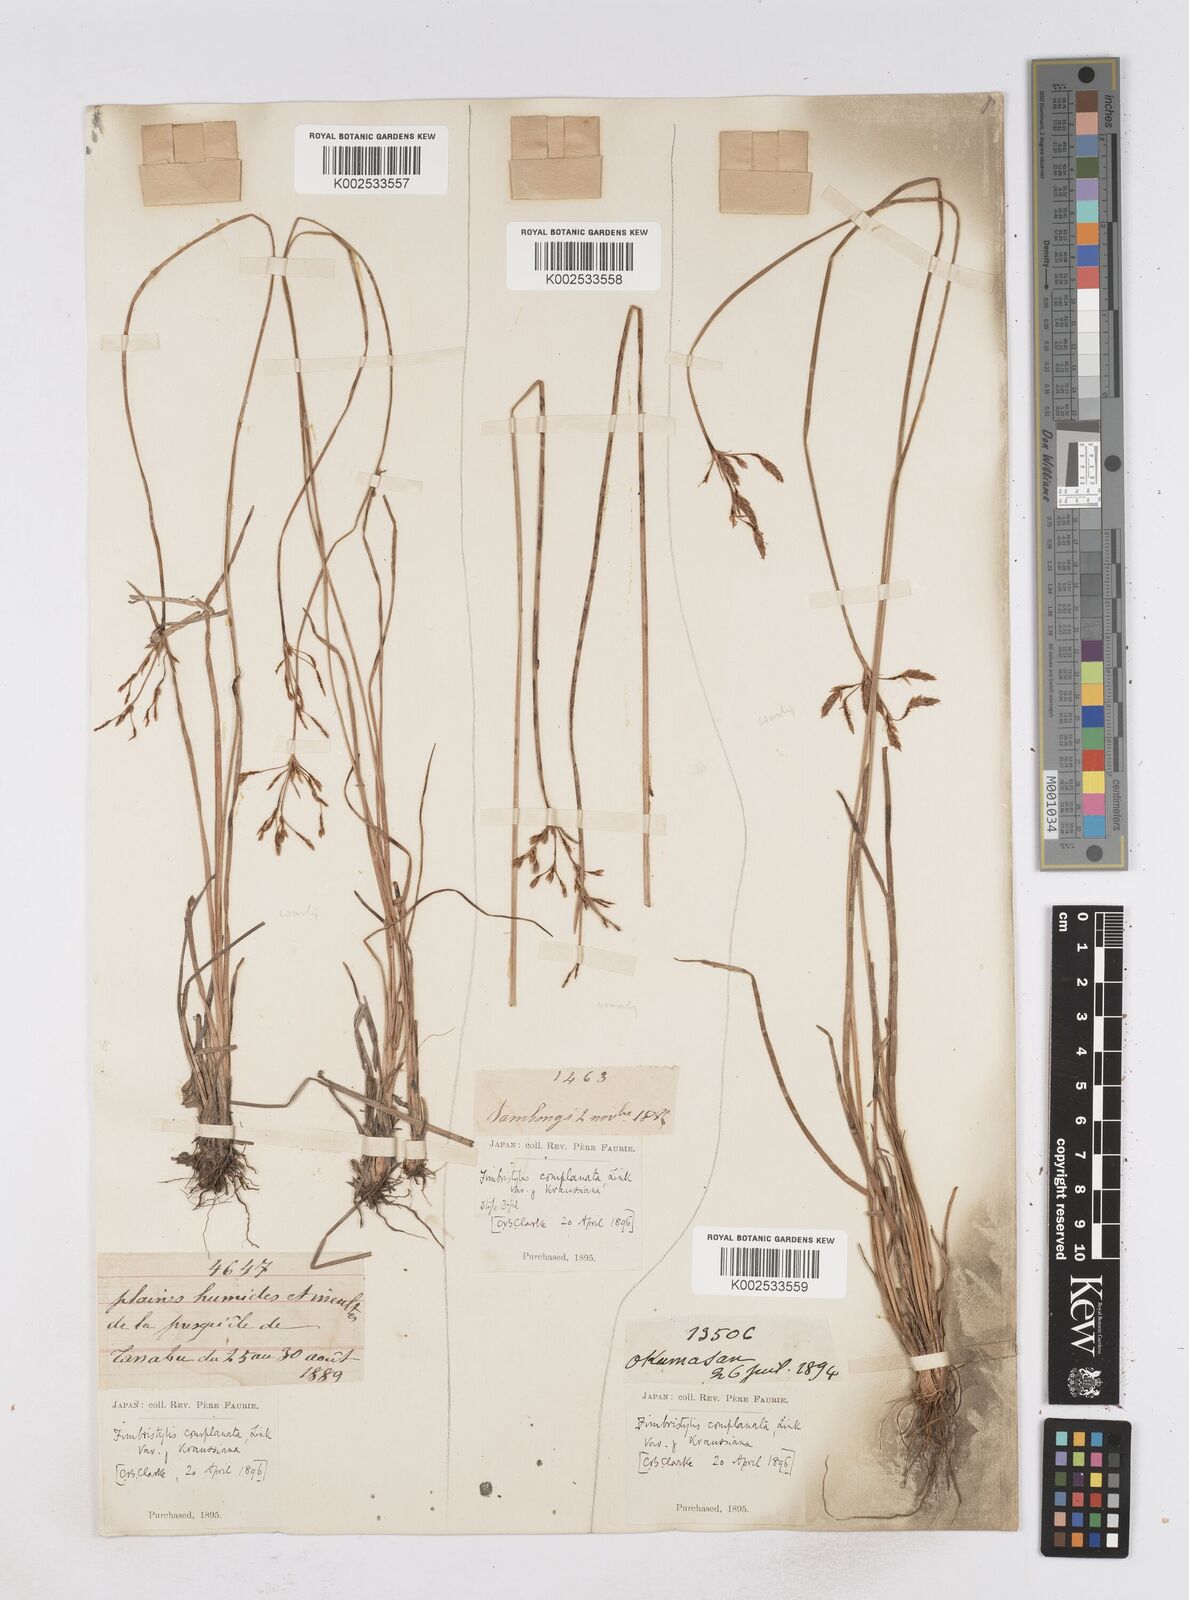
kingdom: Plantae
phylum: Tracheophyta
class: Liliopsida
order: Poales
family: Cyperaceae
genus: Fimbristylis
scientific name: Fimbristylis complanata
